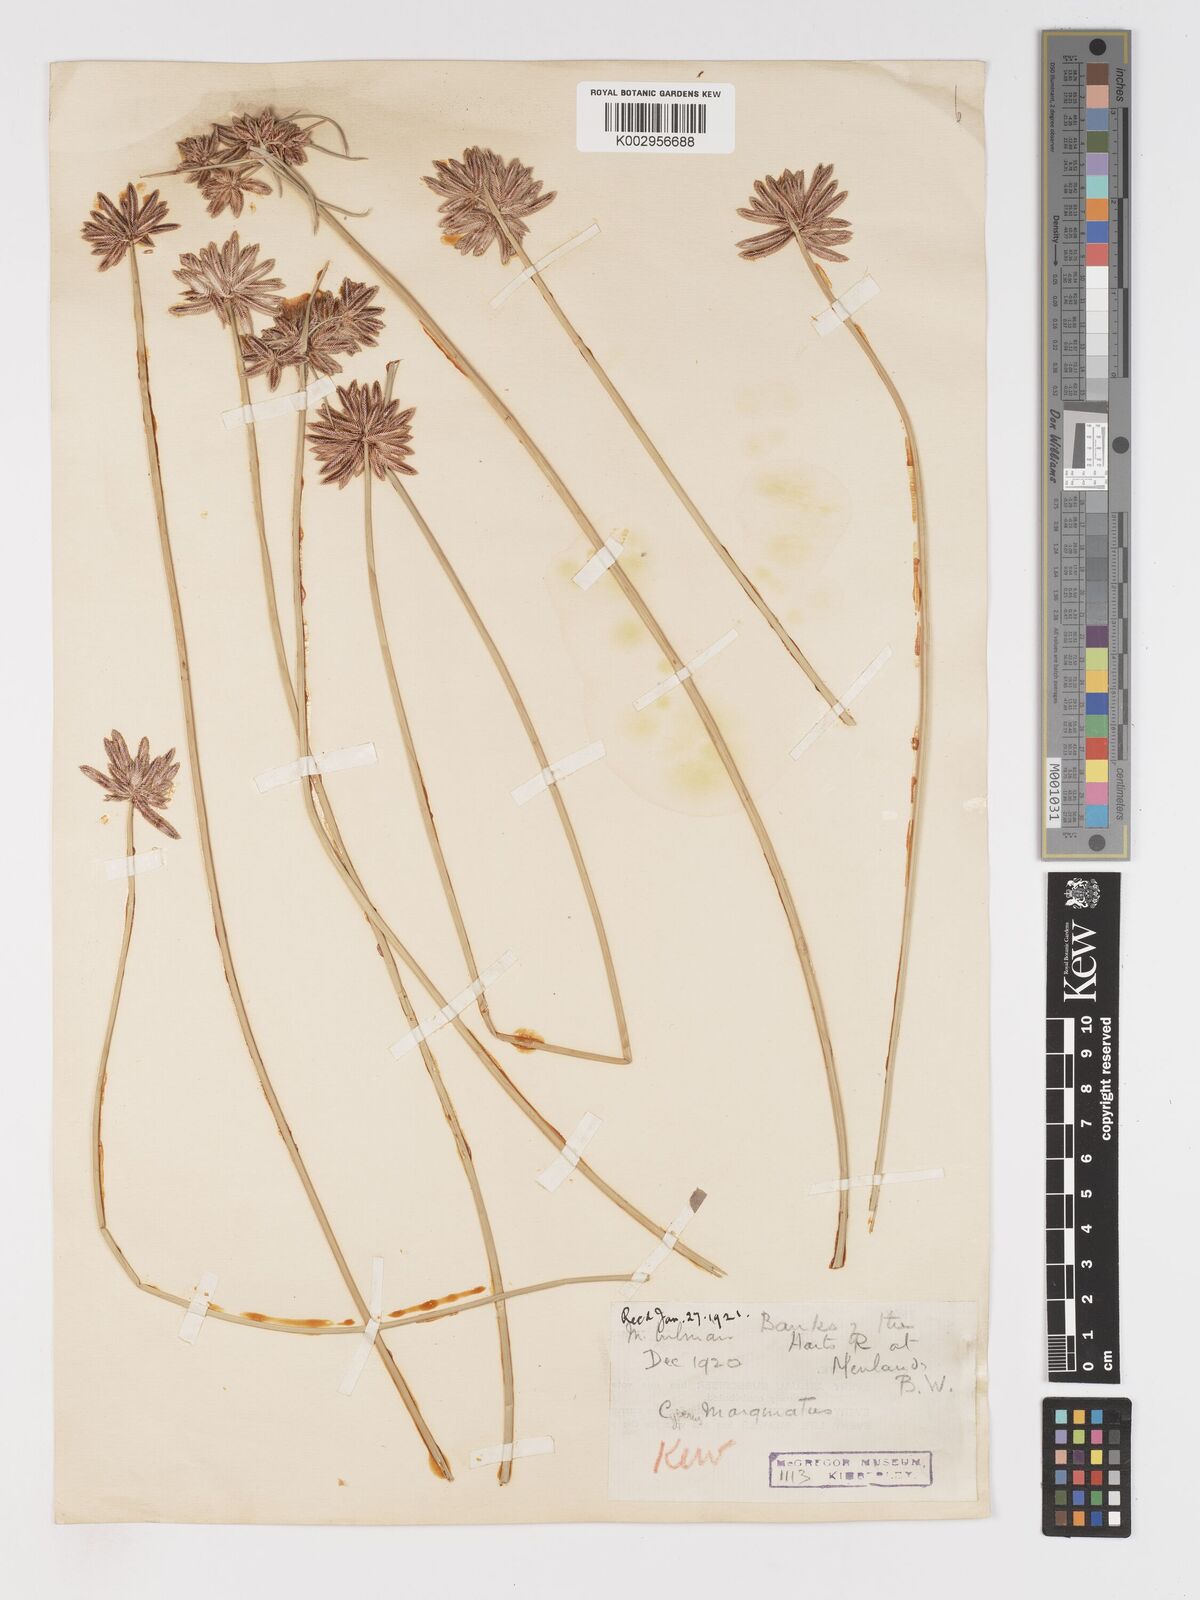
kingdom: Plantae
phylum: Tracheophyta
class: Liliopsida
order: Poales
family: Cyperaceae
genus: Cyperus
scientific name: Cyperus marginatus
